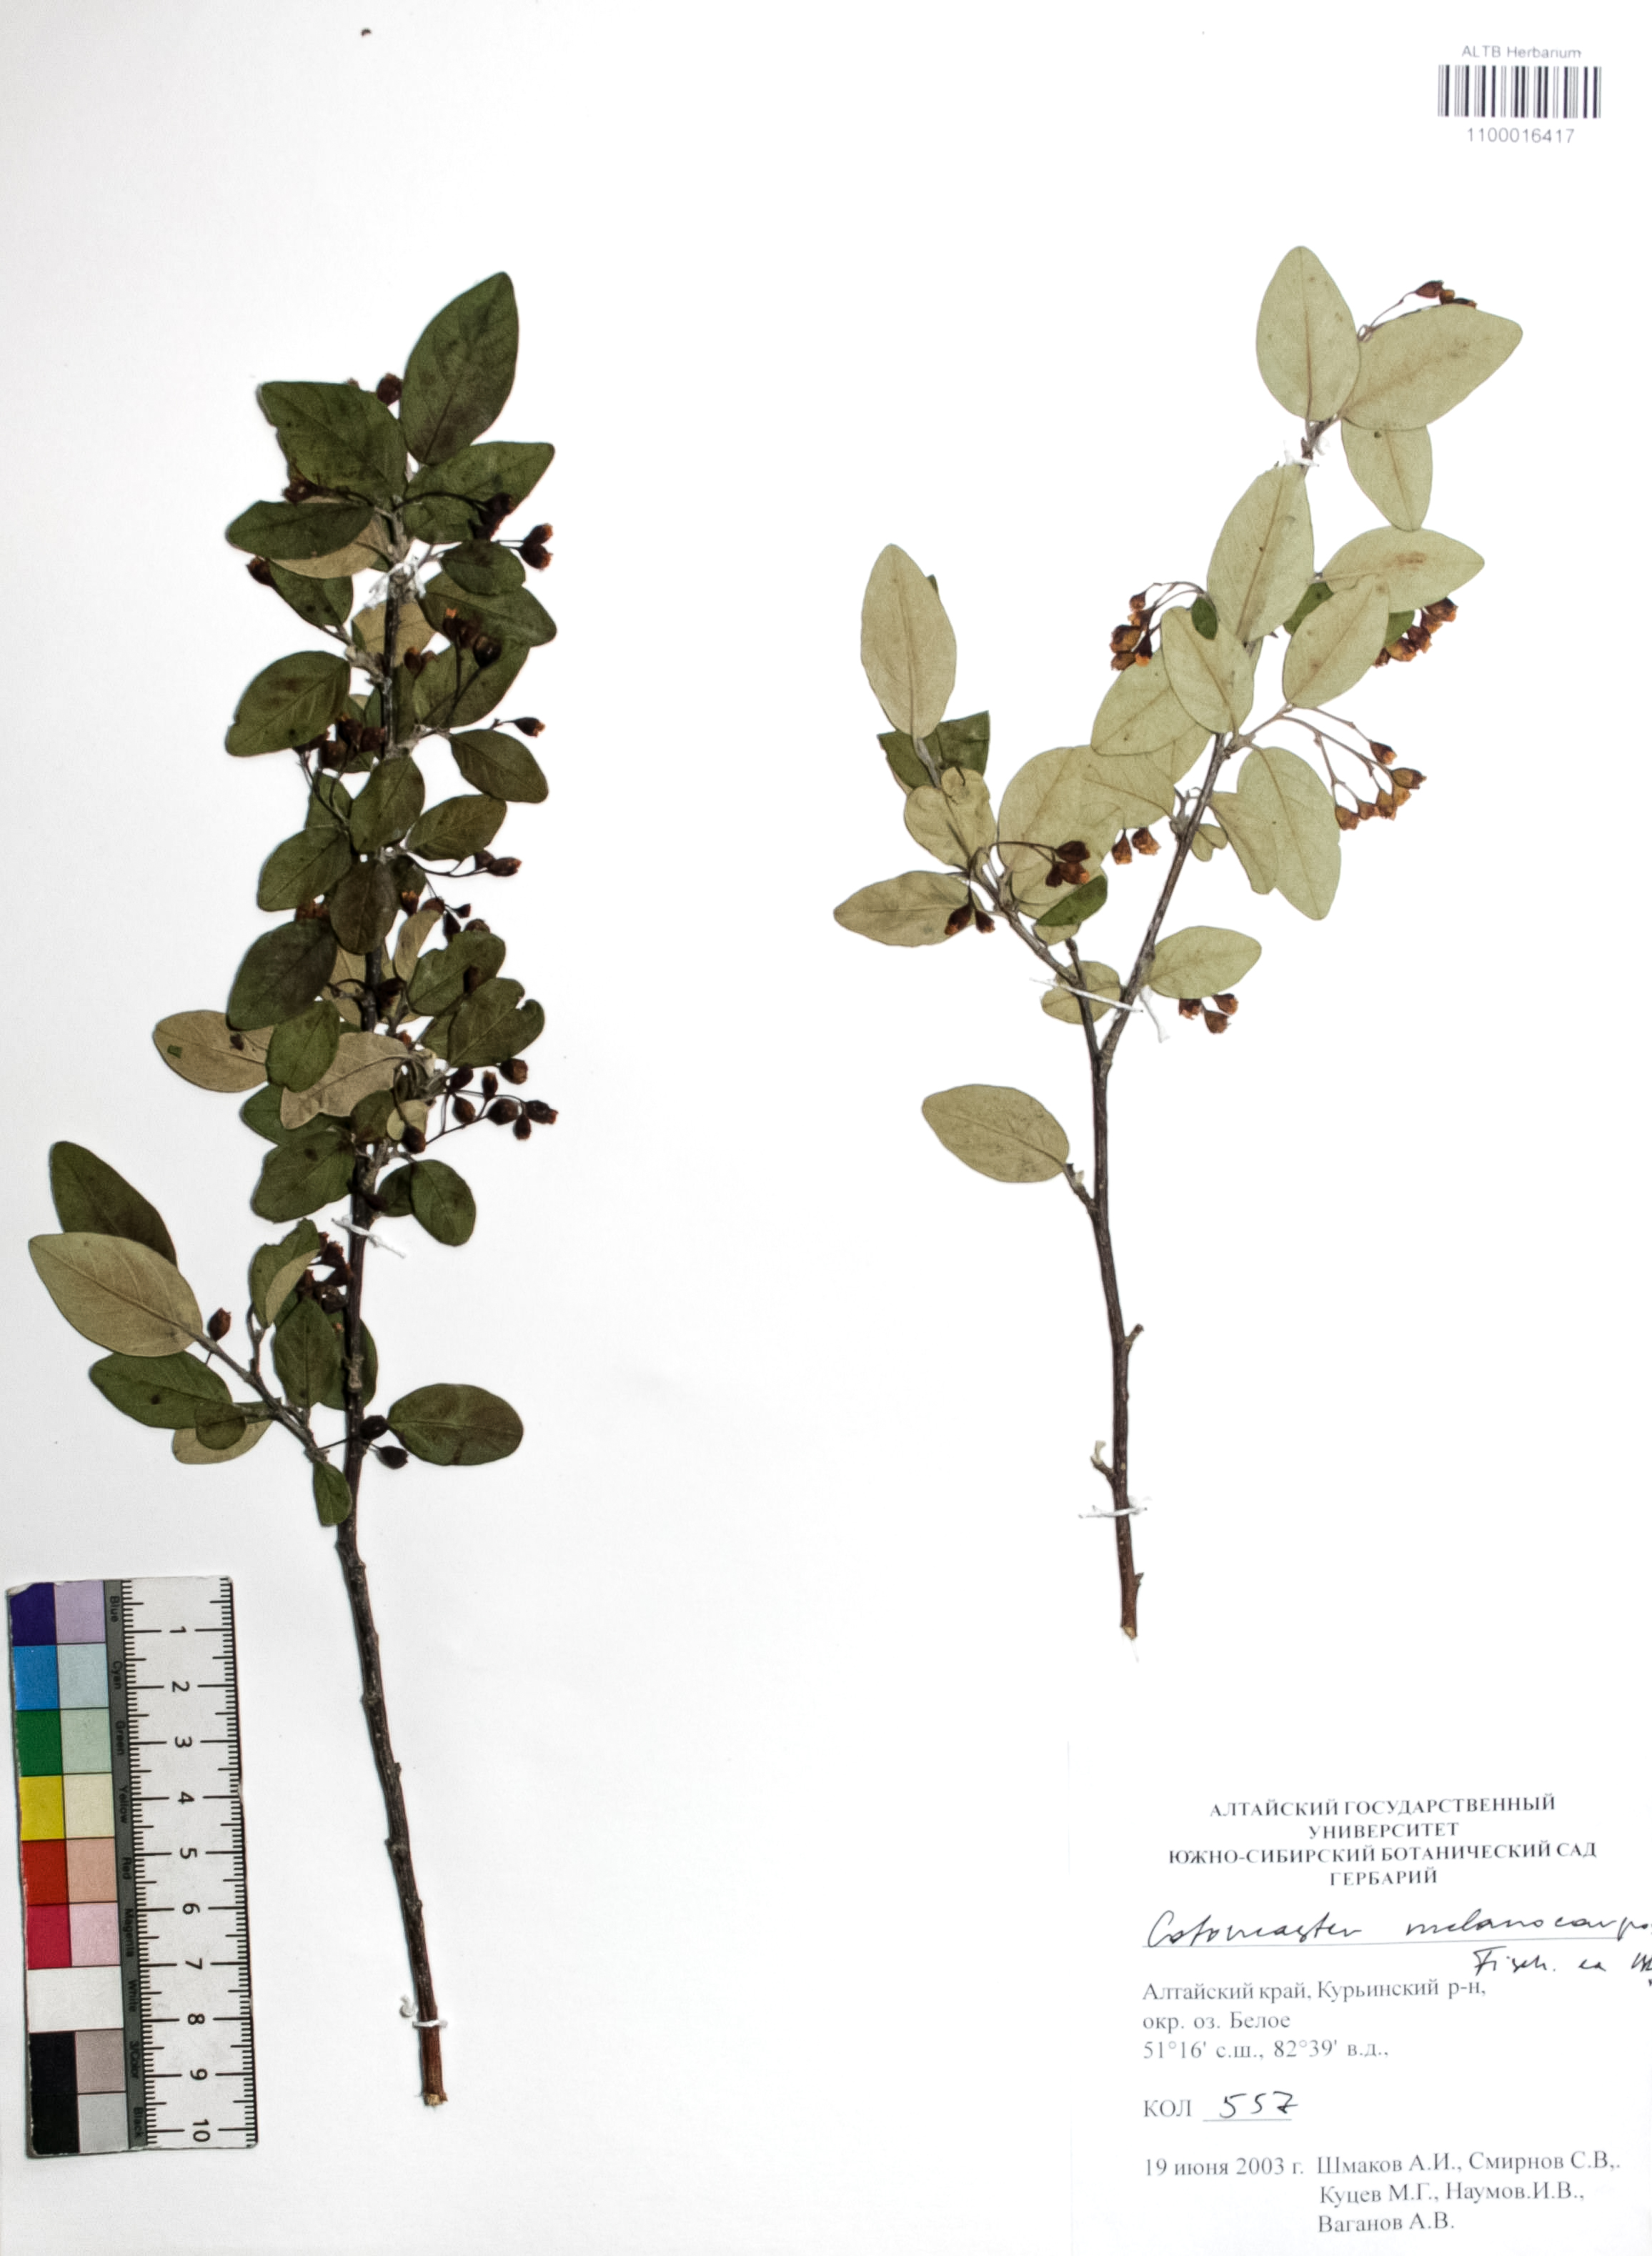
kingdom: Plantae
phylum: Tracheophyta
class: Magnoliopsida
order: Rosales
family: Rosaceae
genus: Cotoneaster
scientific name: Cotoneaster niger
